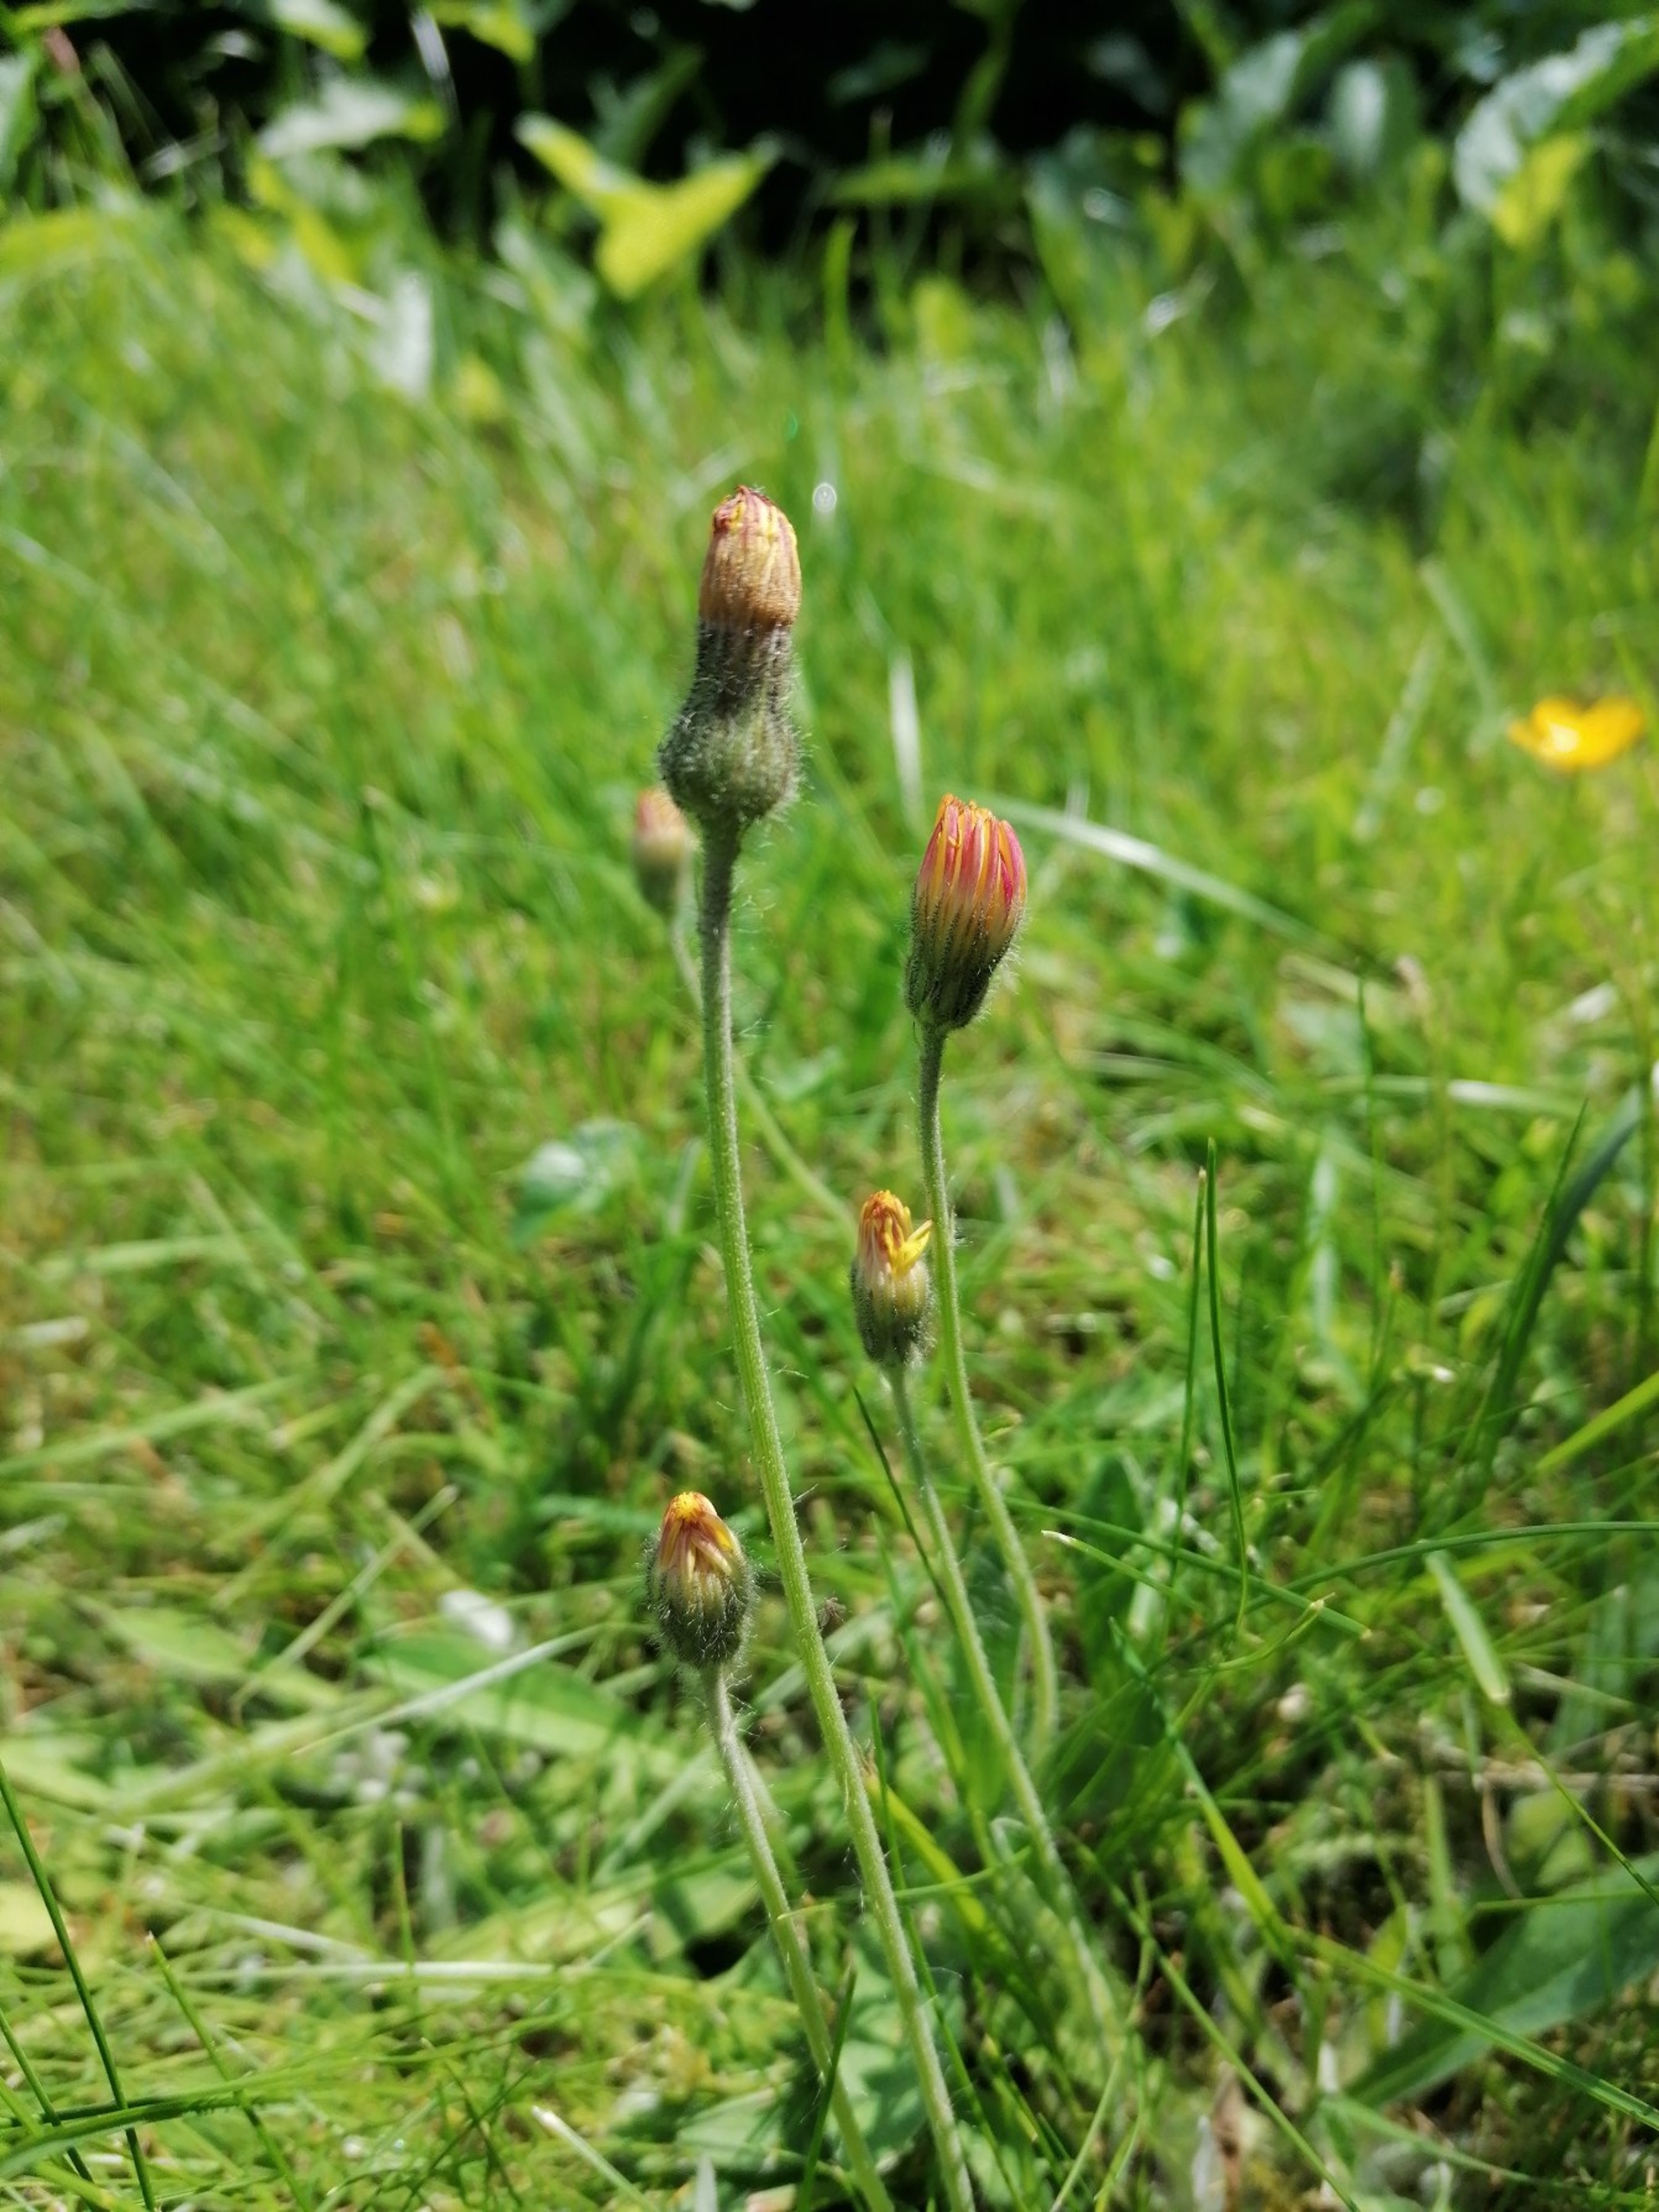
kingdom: Plantae
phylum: Tracheophyta
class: Magnoliopsida
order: Asterales
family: Asteraceae
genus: Pilosella
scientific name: Pilosella officinarum
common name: Håret høgeurt
